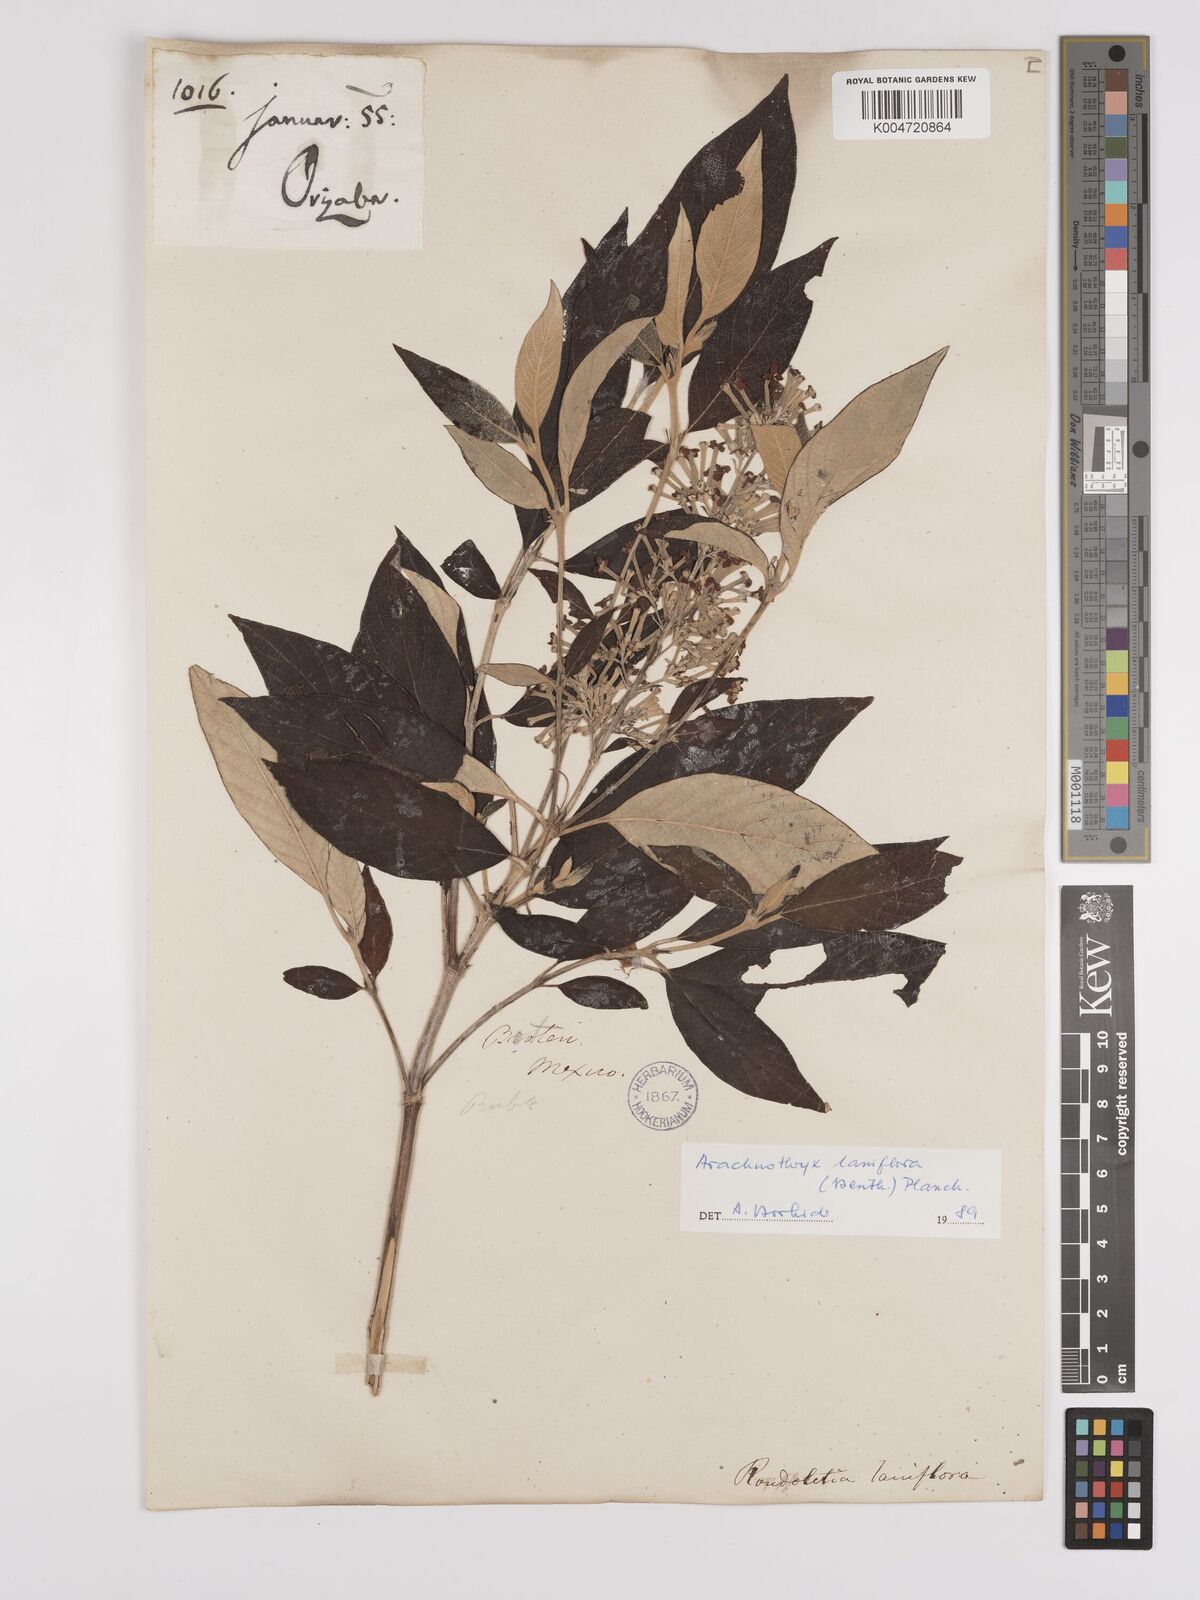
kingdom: Plantae
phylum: Tracheophyta
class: Magnoliopsida
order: Gentianales
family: Rubiaceae
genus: Arachnothryx
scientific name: Arachnothryx laniflora
